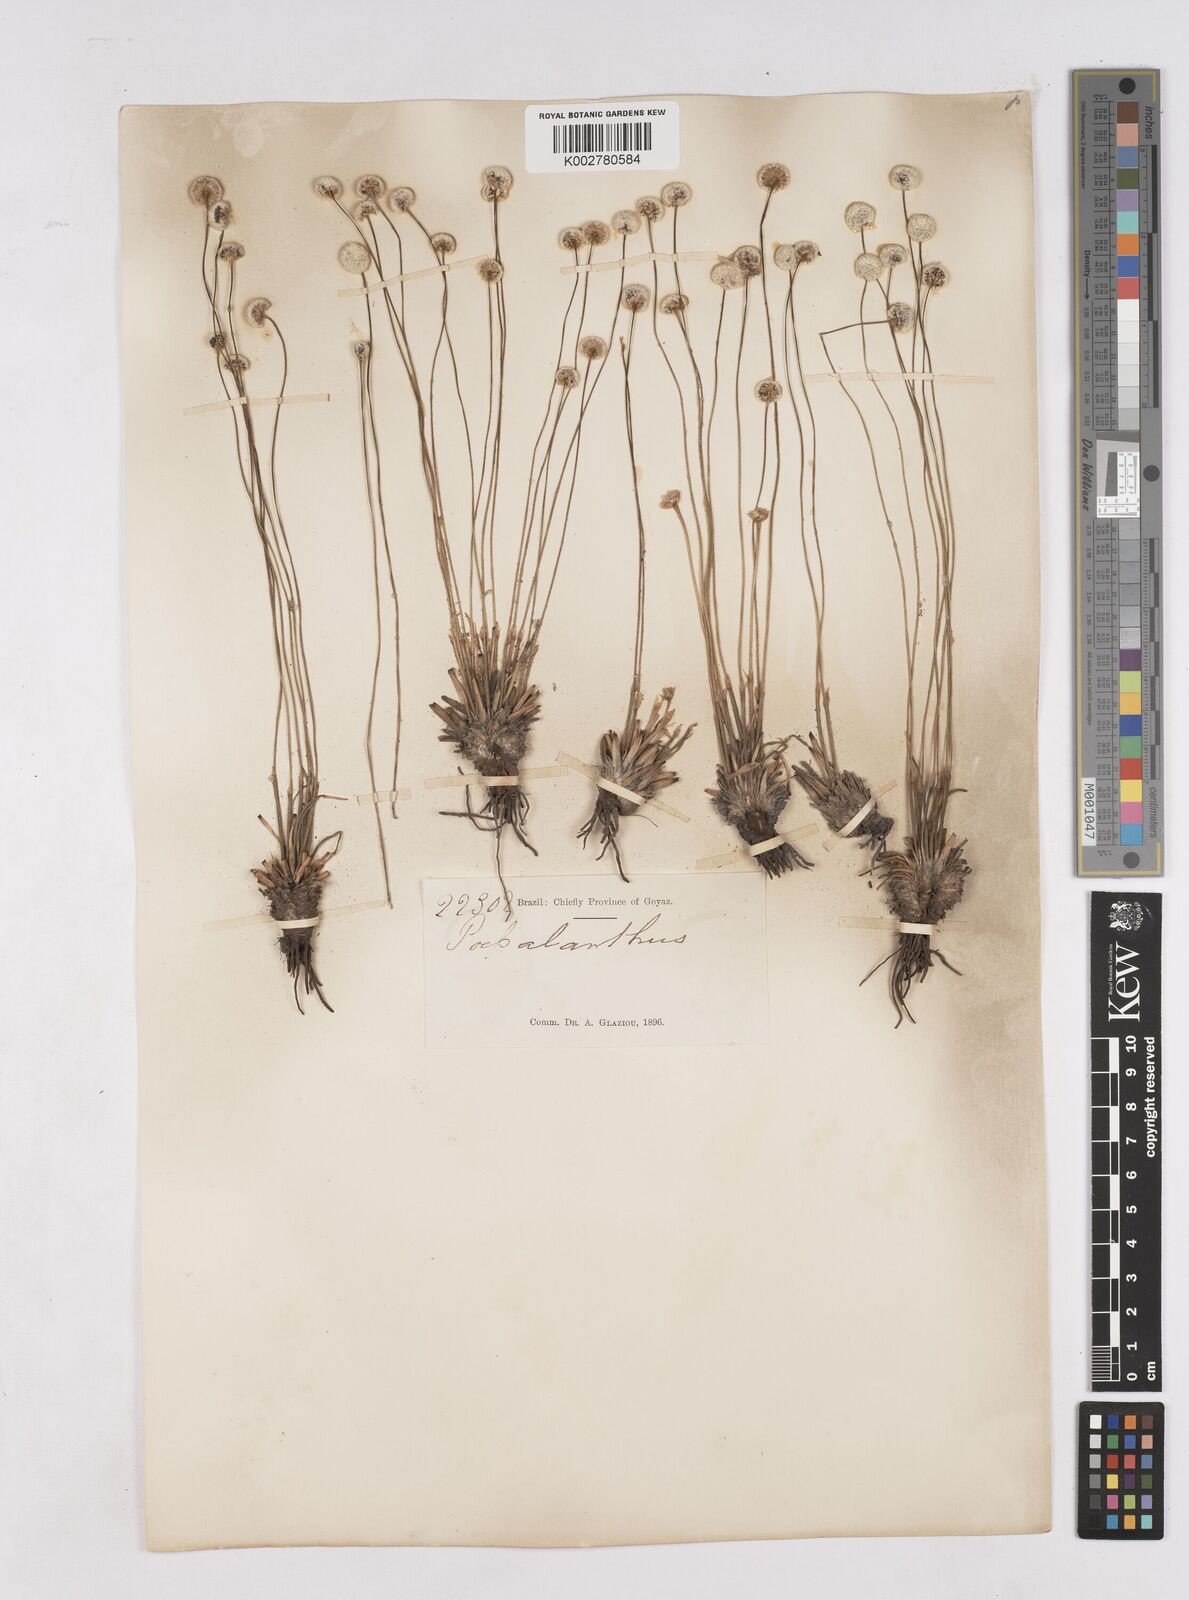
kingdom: Plantae
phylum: Tracheophyta
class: Liliopsida
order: Poales
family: Eriocaulaceae
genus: Paepalanthus
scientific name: Paepalanthus
